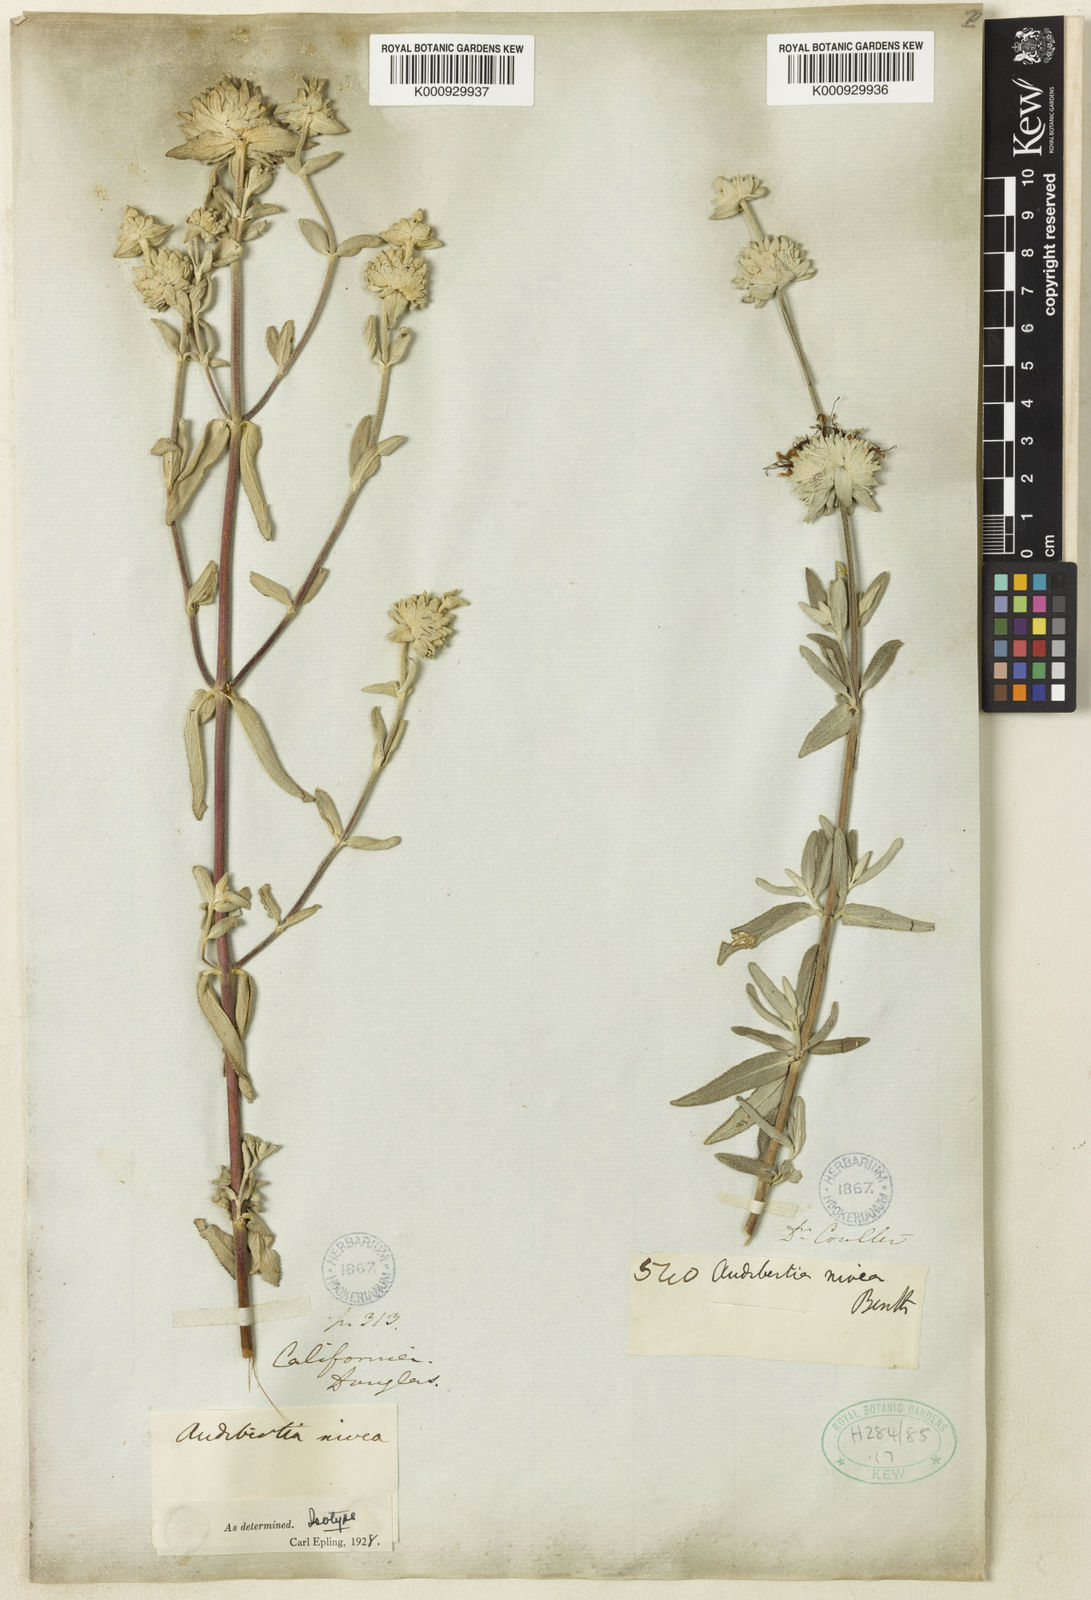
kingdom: Plantae
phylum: Tracheophyta
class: Magnoliopsida
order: Lamiales
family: Lamiaceae
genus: Salvia
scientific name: Salvia leucophylla
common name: Purple sage
